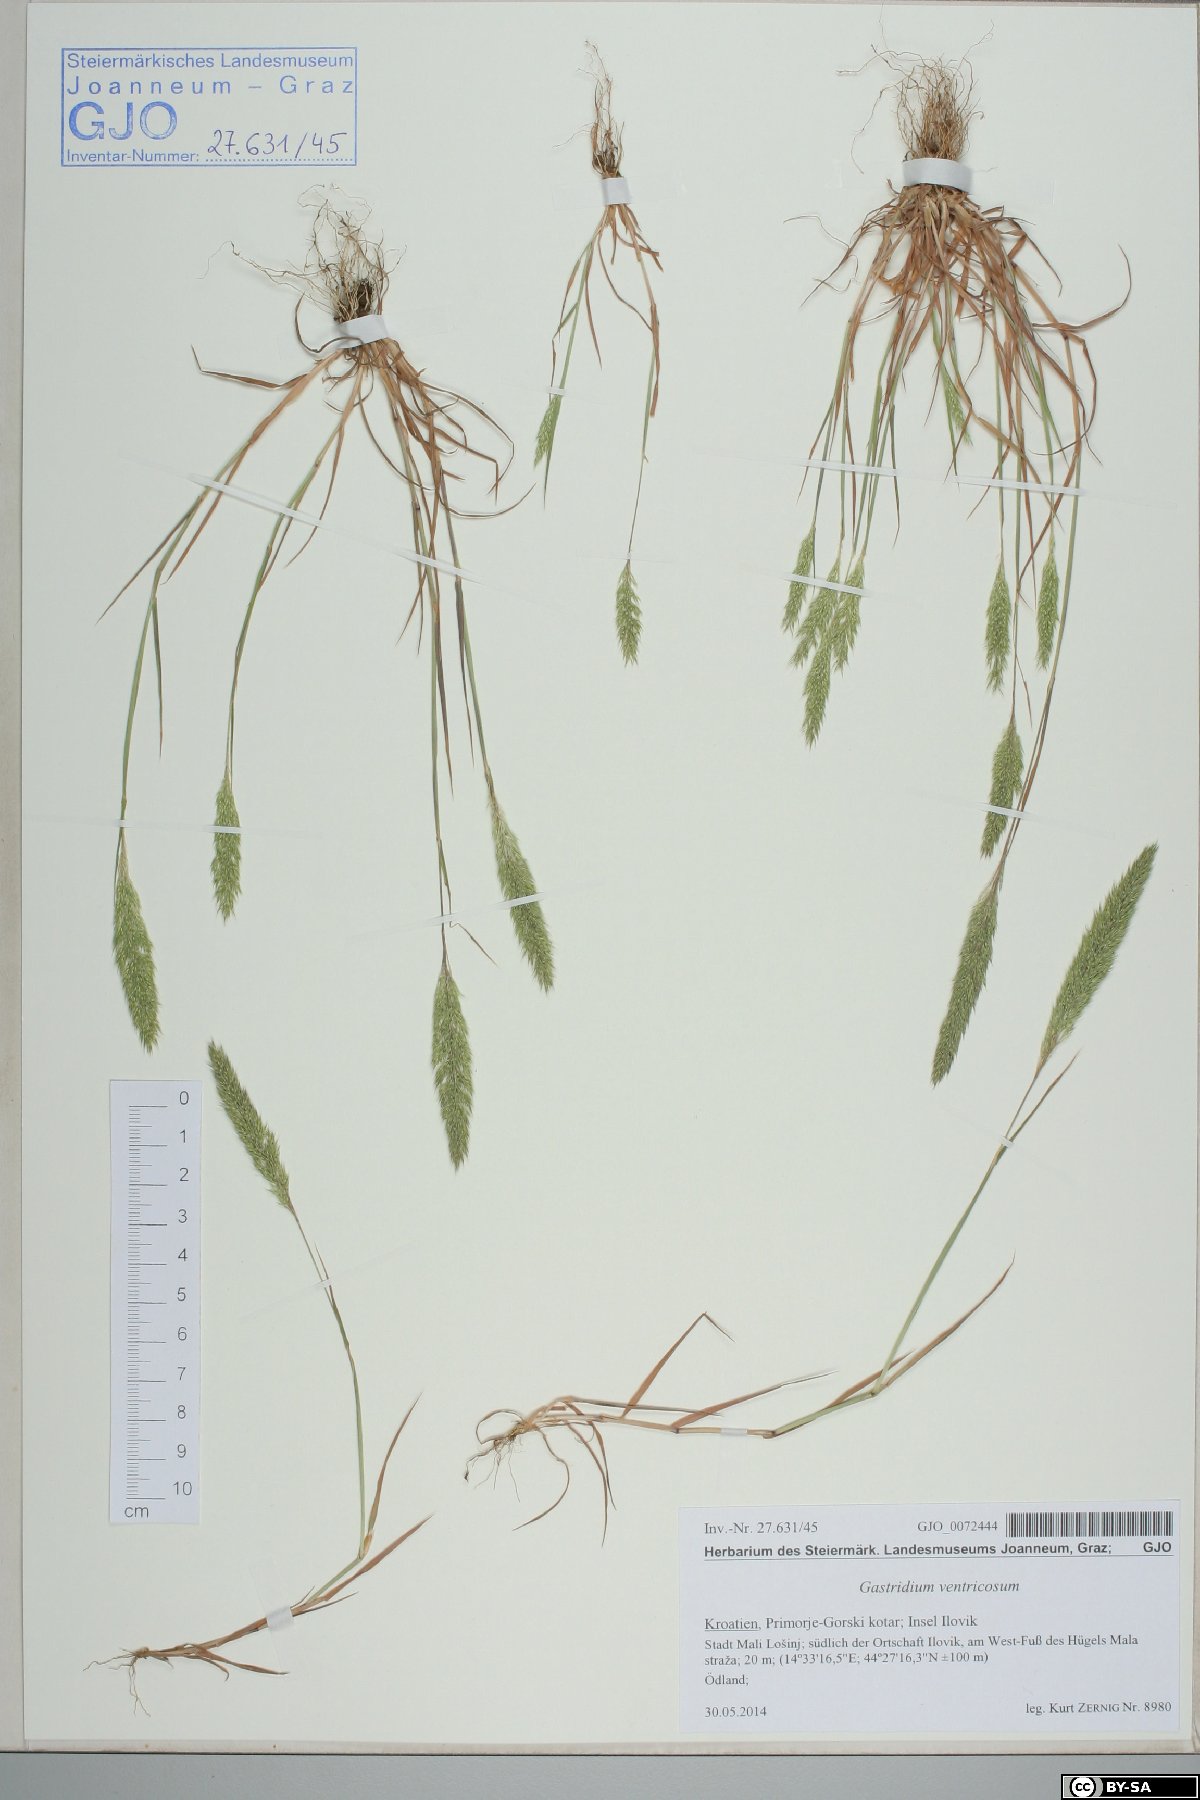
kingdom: Plantae
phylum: Tracheophyta
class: Liliopsida
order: Poales
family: Poaceae
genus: Gastridium
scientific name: Gastridium ventricosum
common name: Nit-grass
